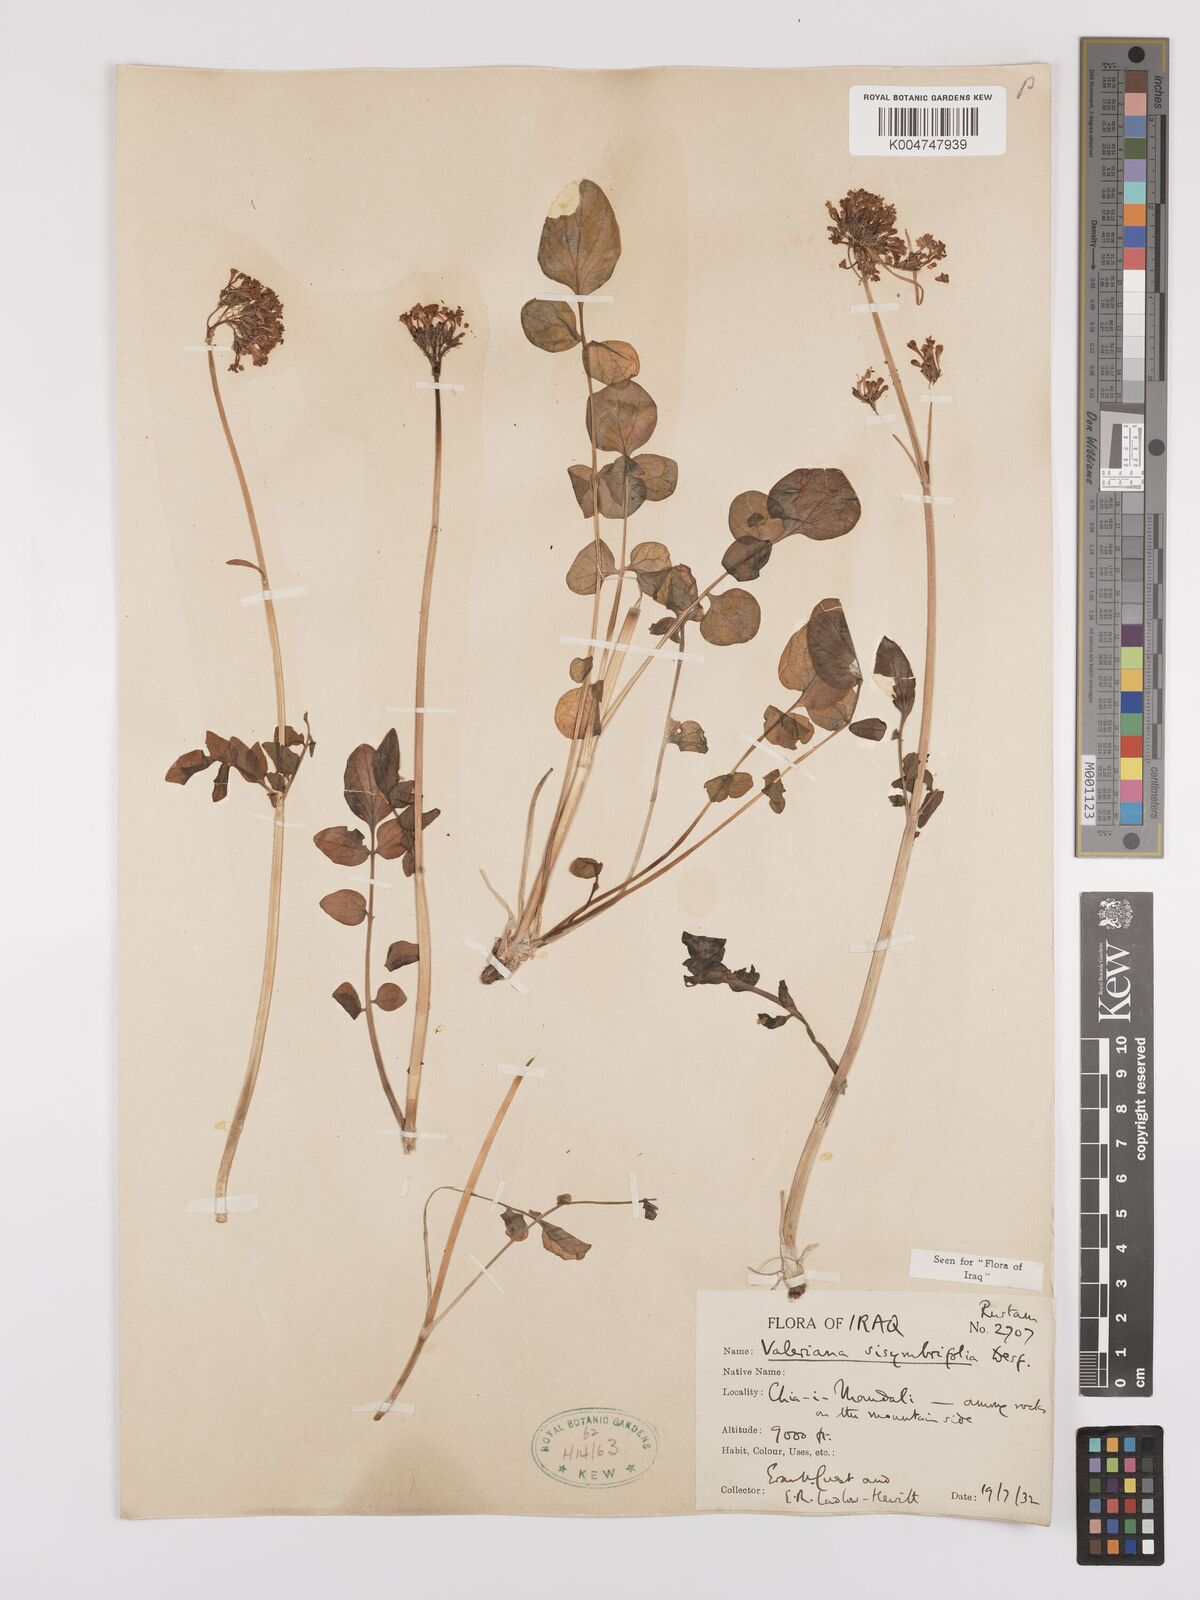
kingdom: Plantae
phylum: Tracheophyta
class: Magnoliopsida
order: Dipsacales
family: Caprifoliaceae
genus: Valeriana
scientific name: Valeriana
